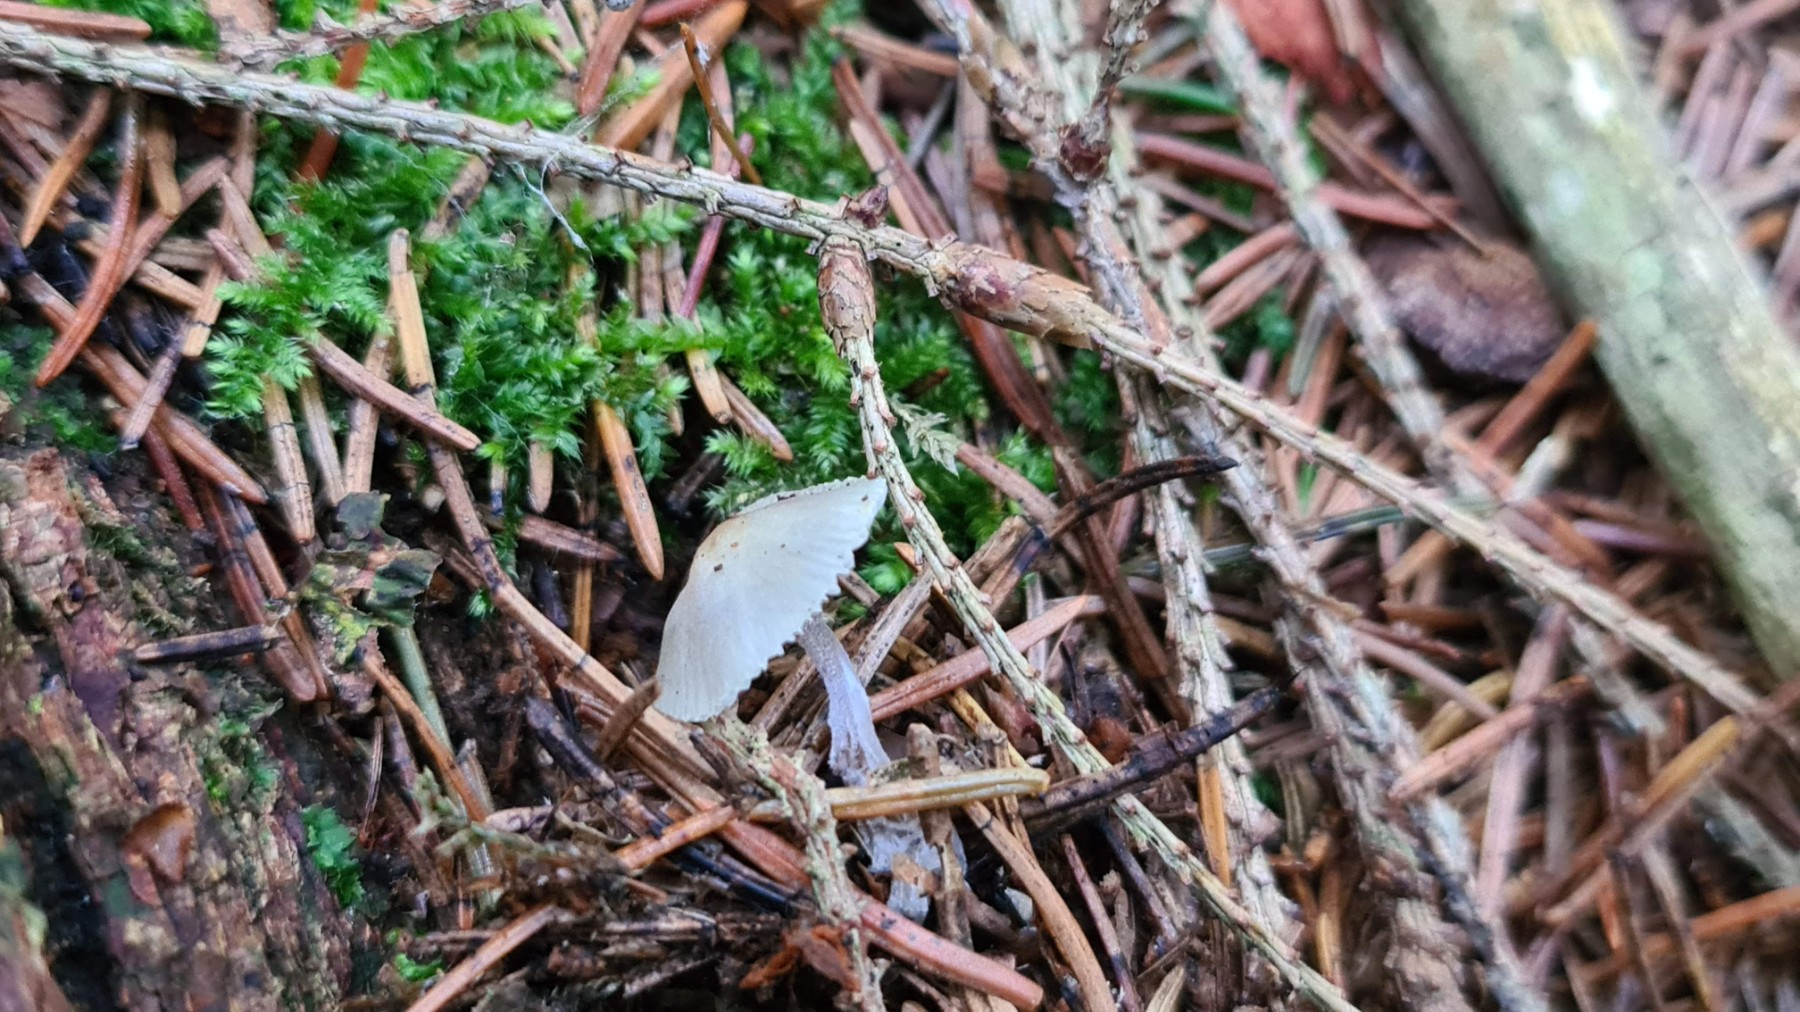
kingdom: Fungi
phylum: Basidiomycota
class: Agaricomycetes
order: Agaricales
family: Mycenaceae
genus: Mycena
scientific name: Mycena amicta
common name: iris-huesvamp
